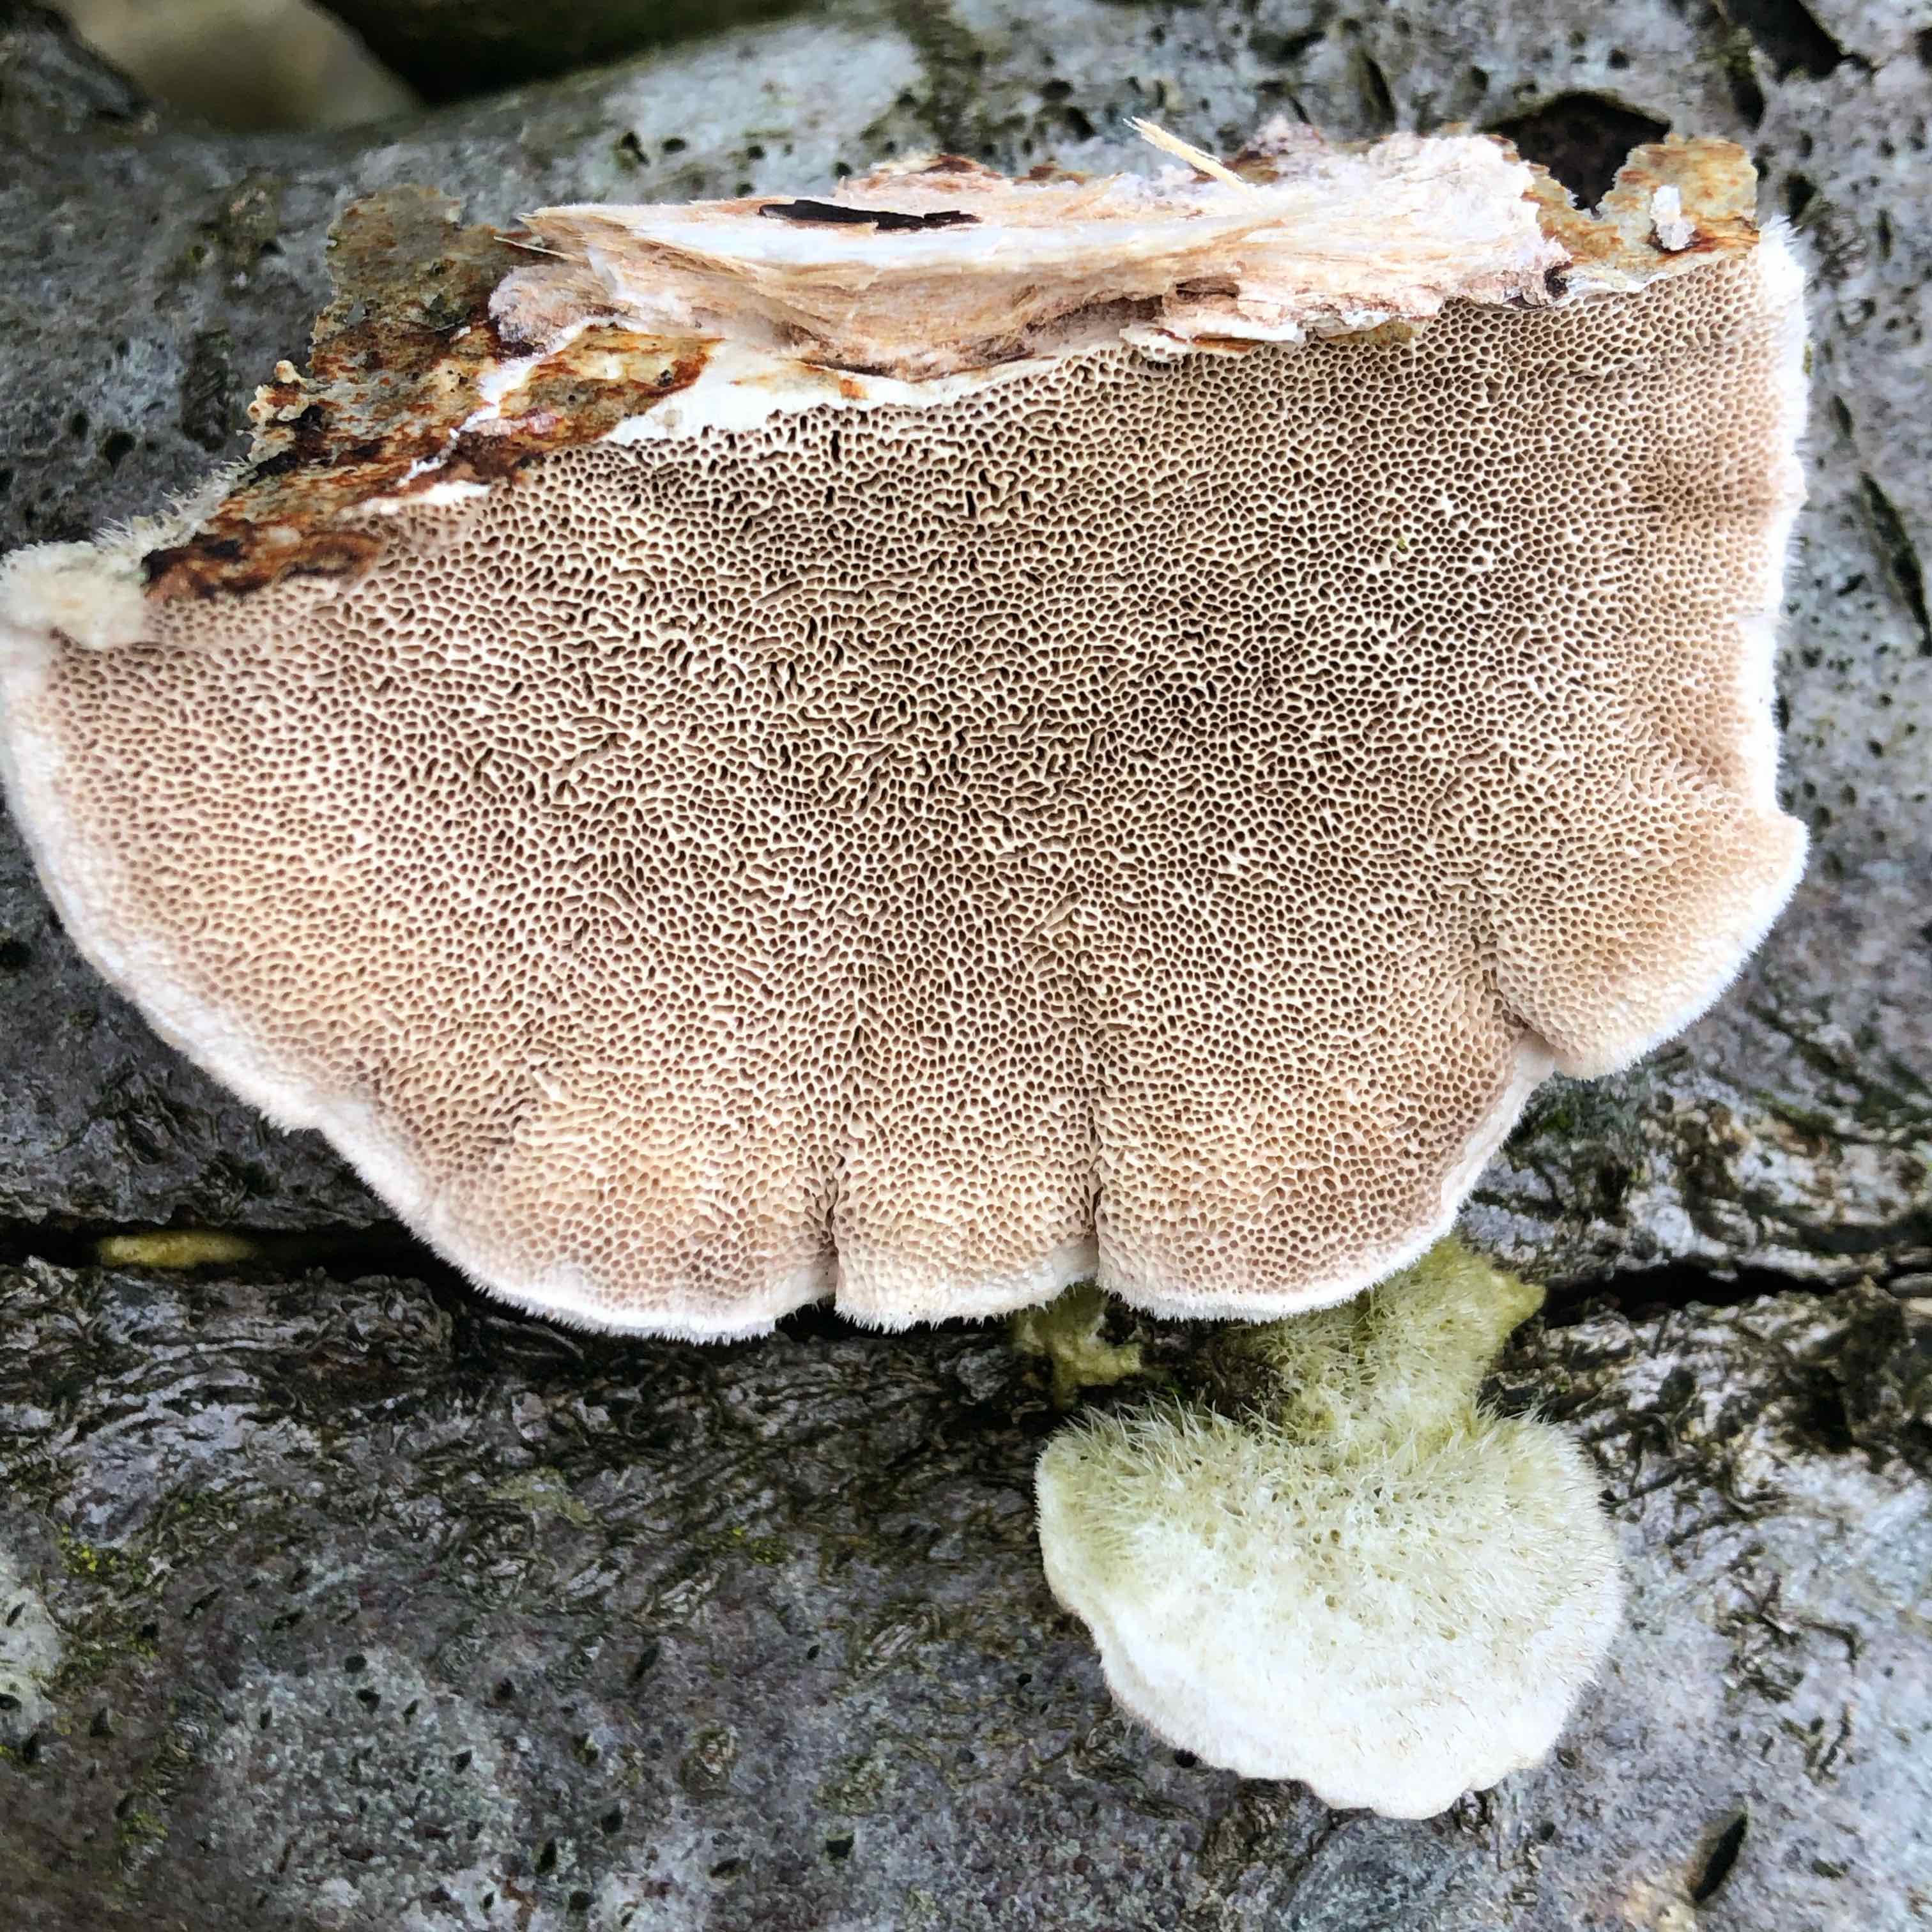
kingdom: Fungi
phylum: Basidiomycota
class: Agaricomycetes
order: Polyporales
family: Polyporaceae
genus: Trametes
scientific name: Trametes hirsuta
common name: håret læderporesvamp
